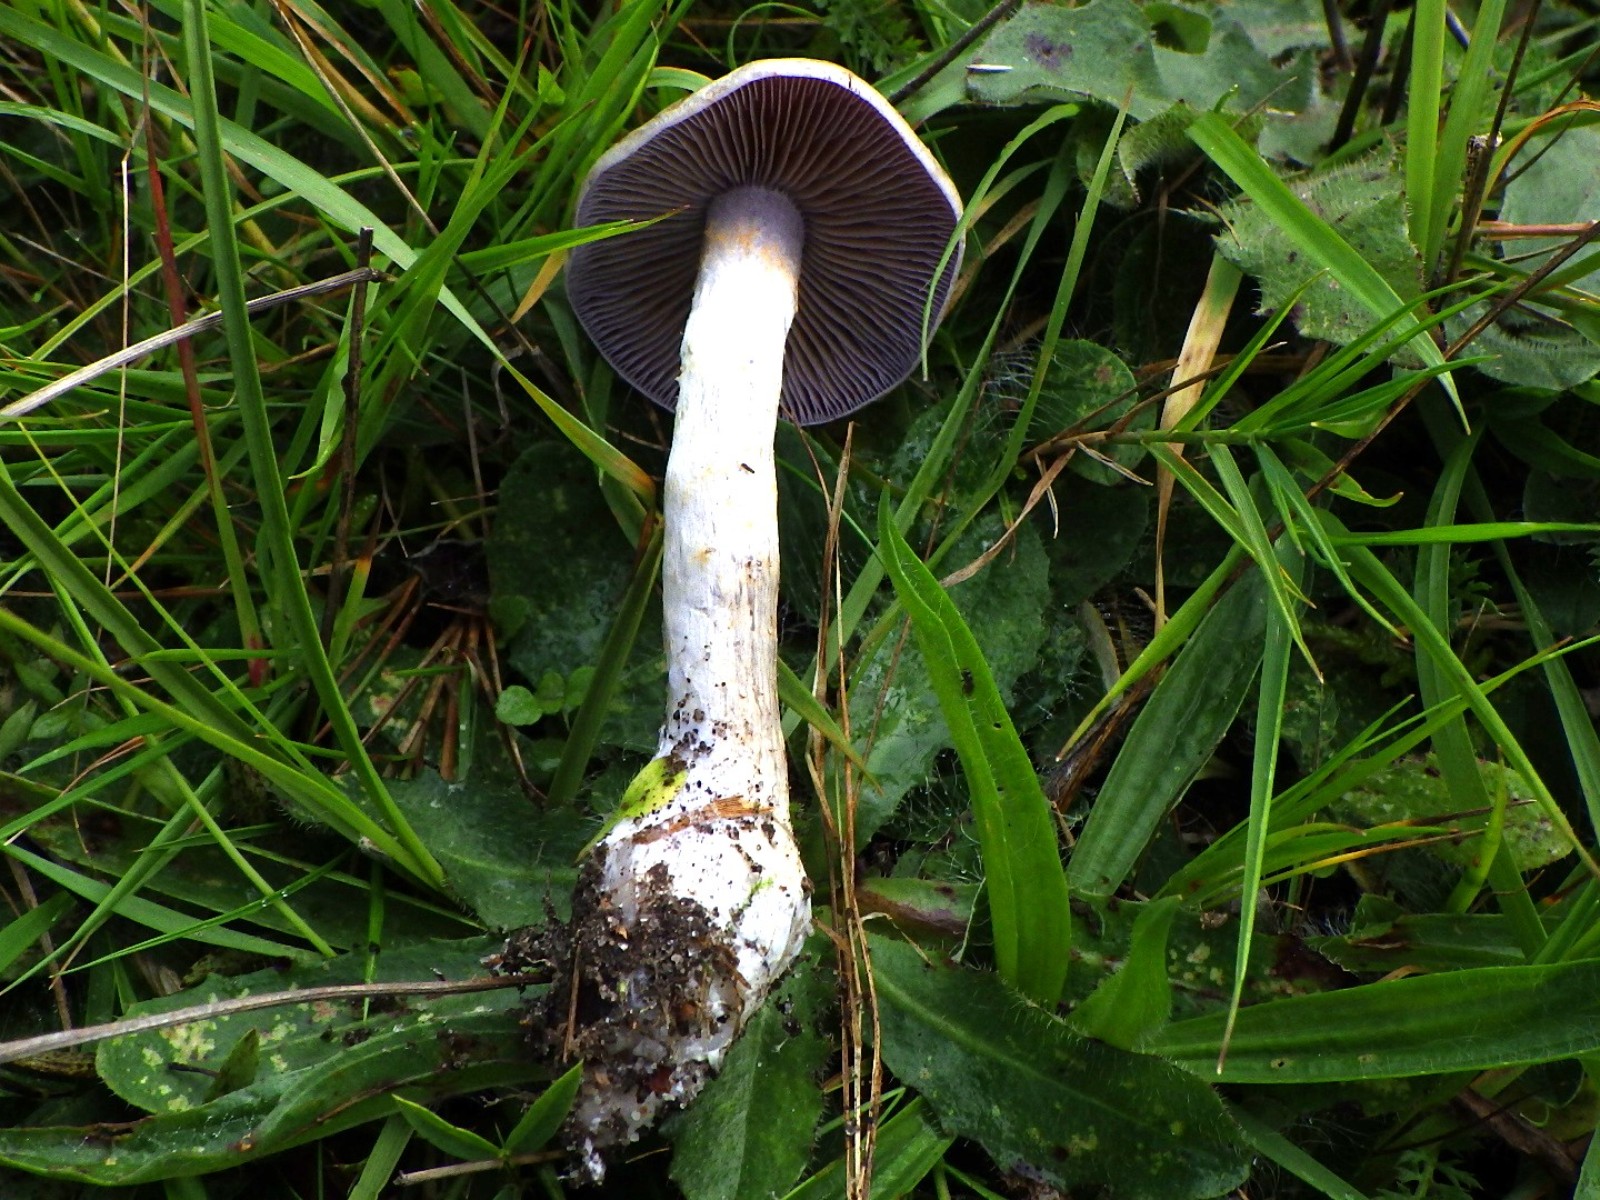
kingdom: Fungi
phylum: Basidiomycota
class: Agaricomycetes
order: Agaricales
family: Cortinariaceae
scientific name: Cortinariaceae
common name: slørhatfamilien
